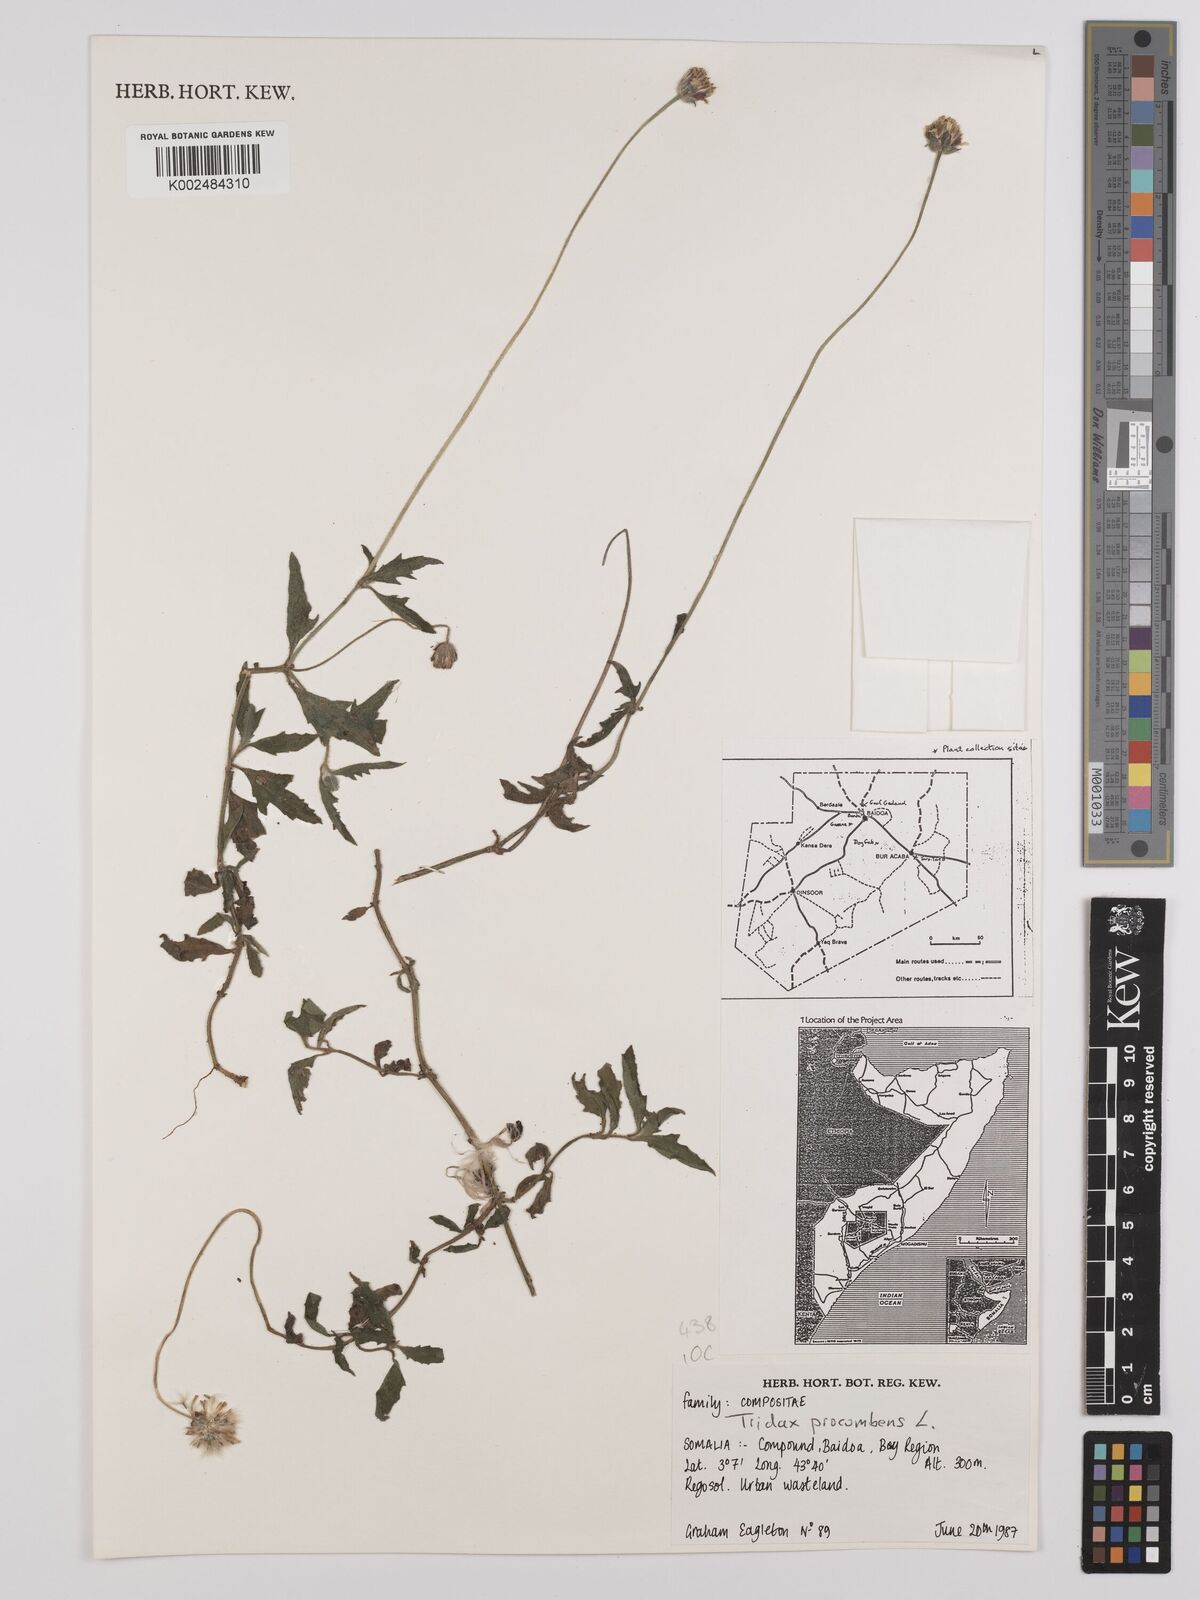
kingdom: Plantae
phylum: Tracheophyta
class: Magnoliopsida
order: Asterales
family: Asteraceae
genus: Tridax
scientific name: Tridax procumbens
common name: Coatbuttons
